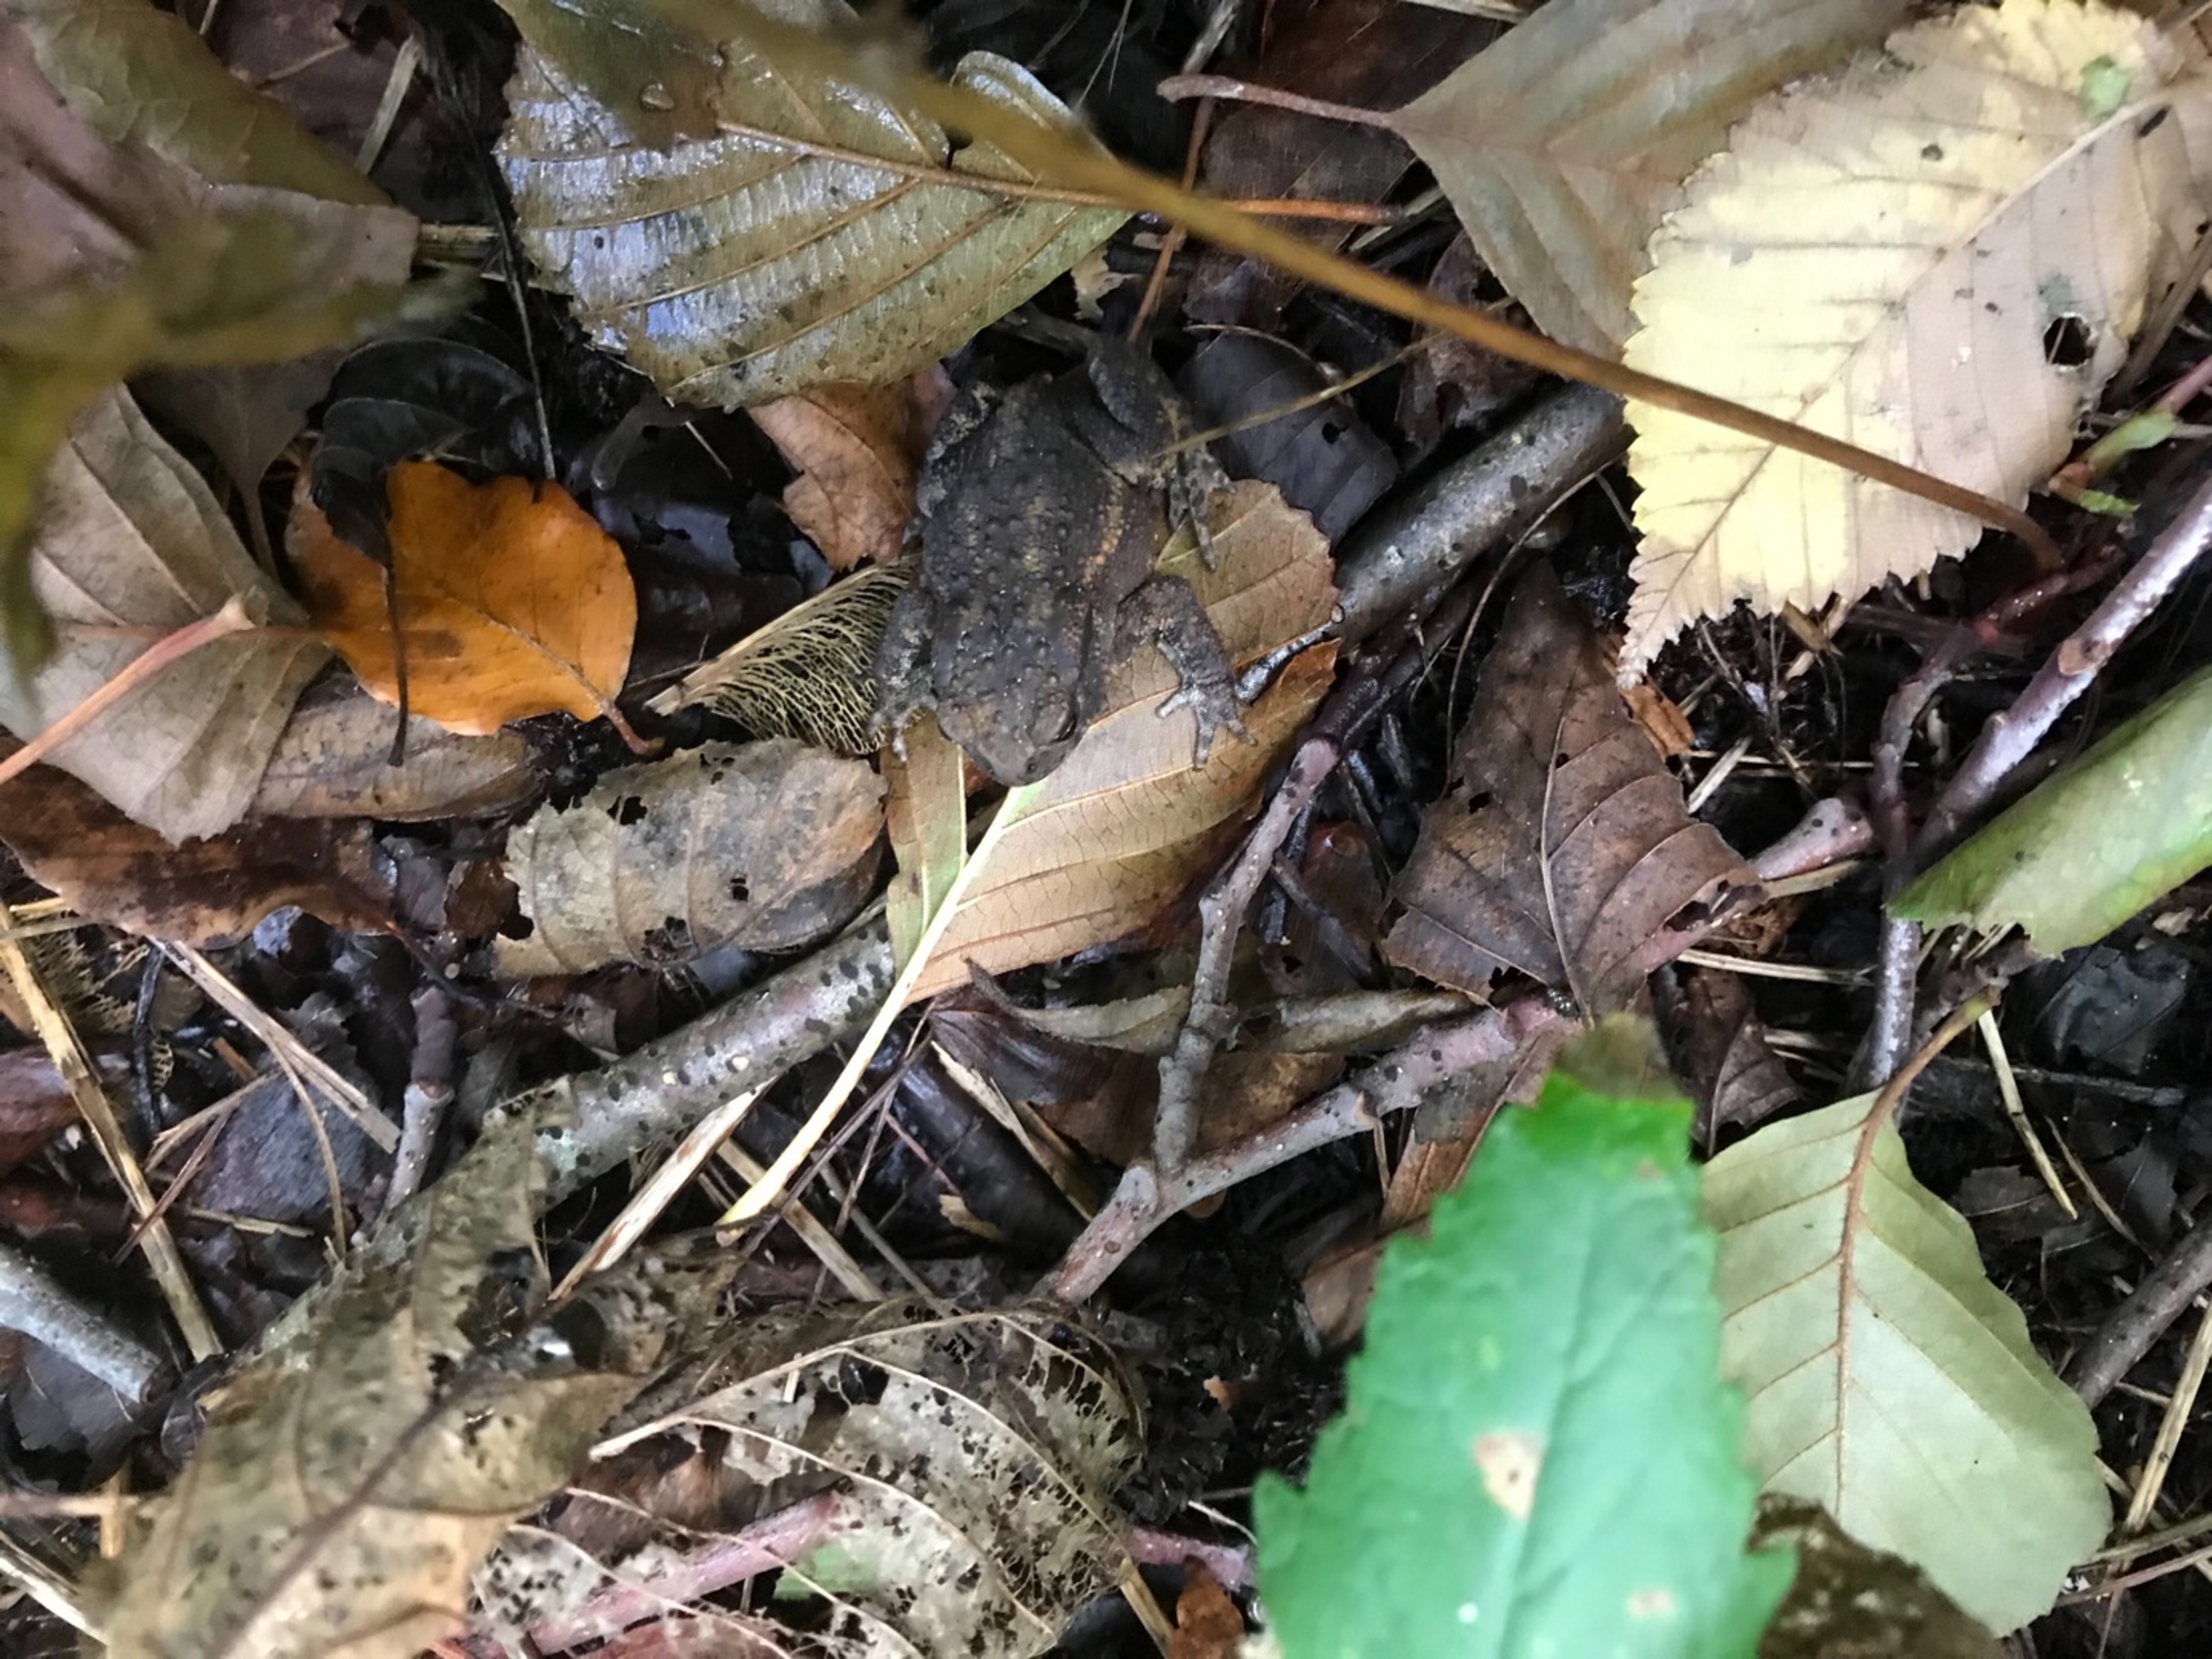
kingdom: Animalia
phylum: Chordata
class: Amphibia
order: Anura
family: Bufonidae
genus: Bufo
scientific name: Bufo bufo
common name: Skrubtudse
